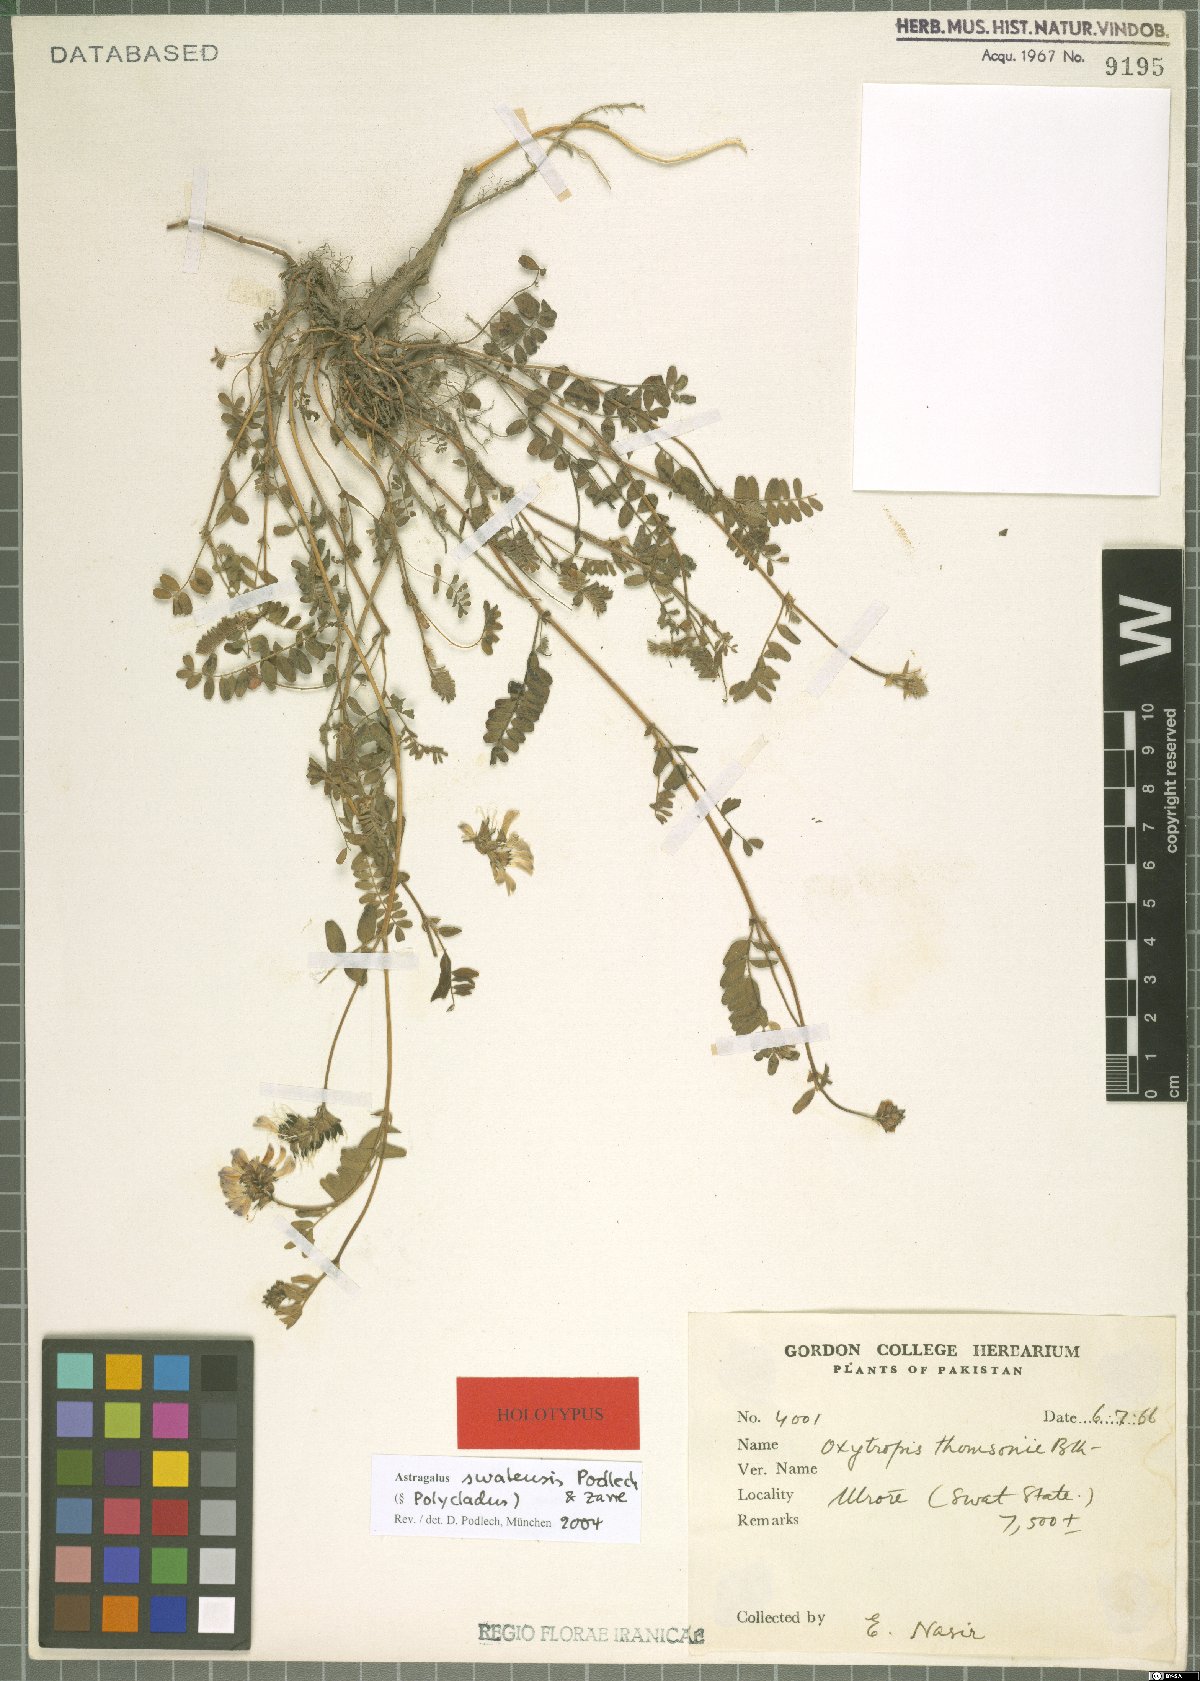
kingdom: Plantae
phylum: Tracheophyta
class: Magnoliopsida
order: Fabales
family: Fabaceae
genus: Astragalus
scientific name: Astragalus swatensis
